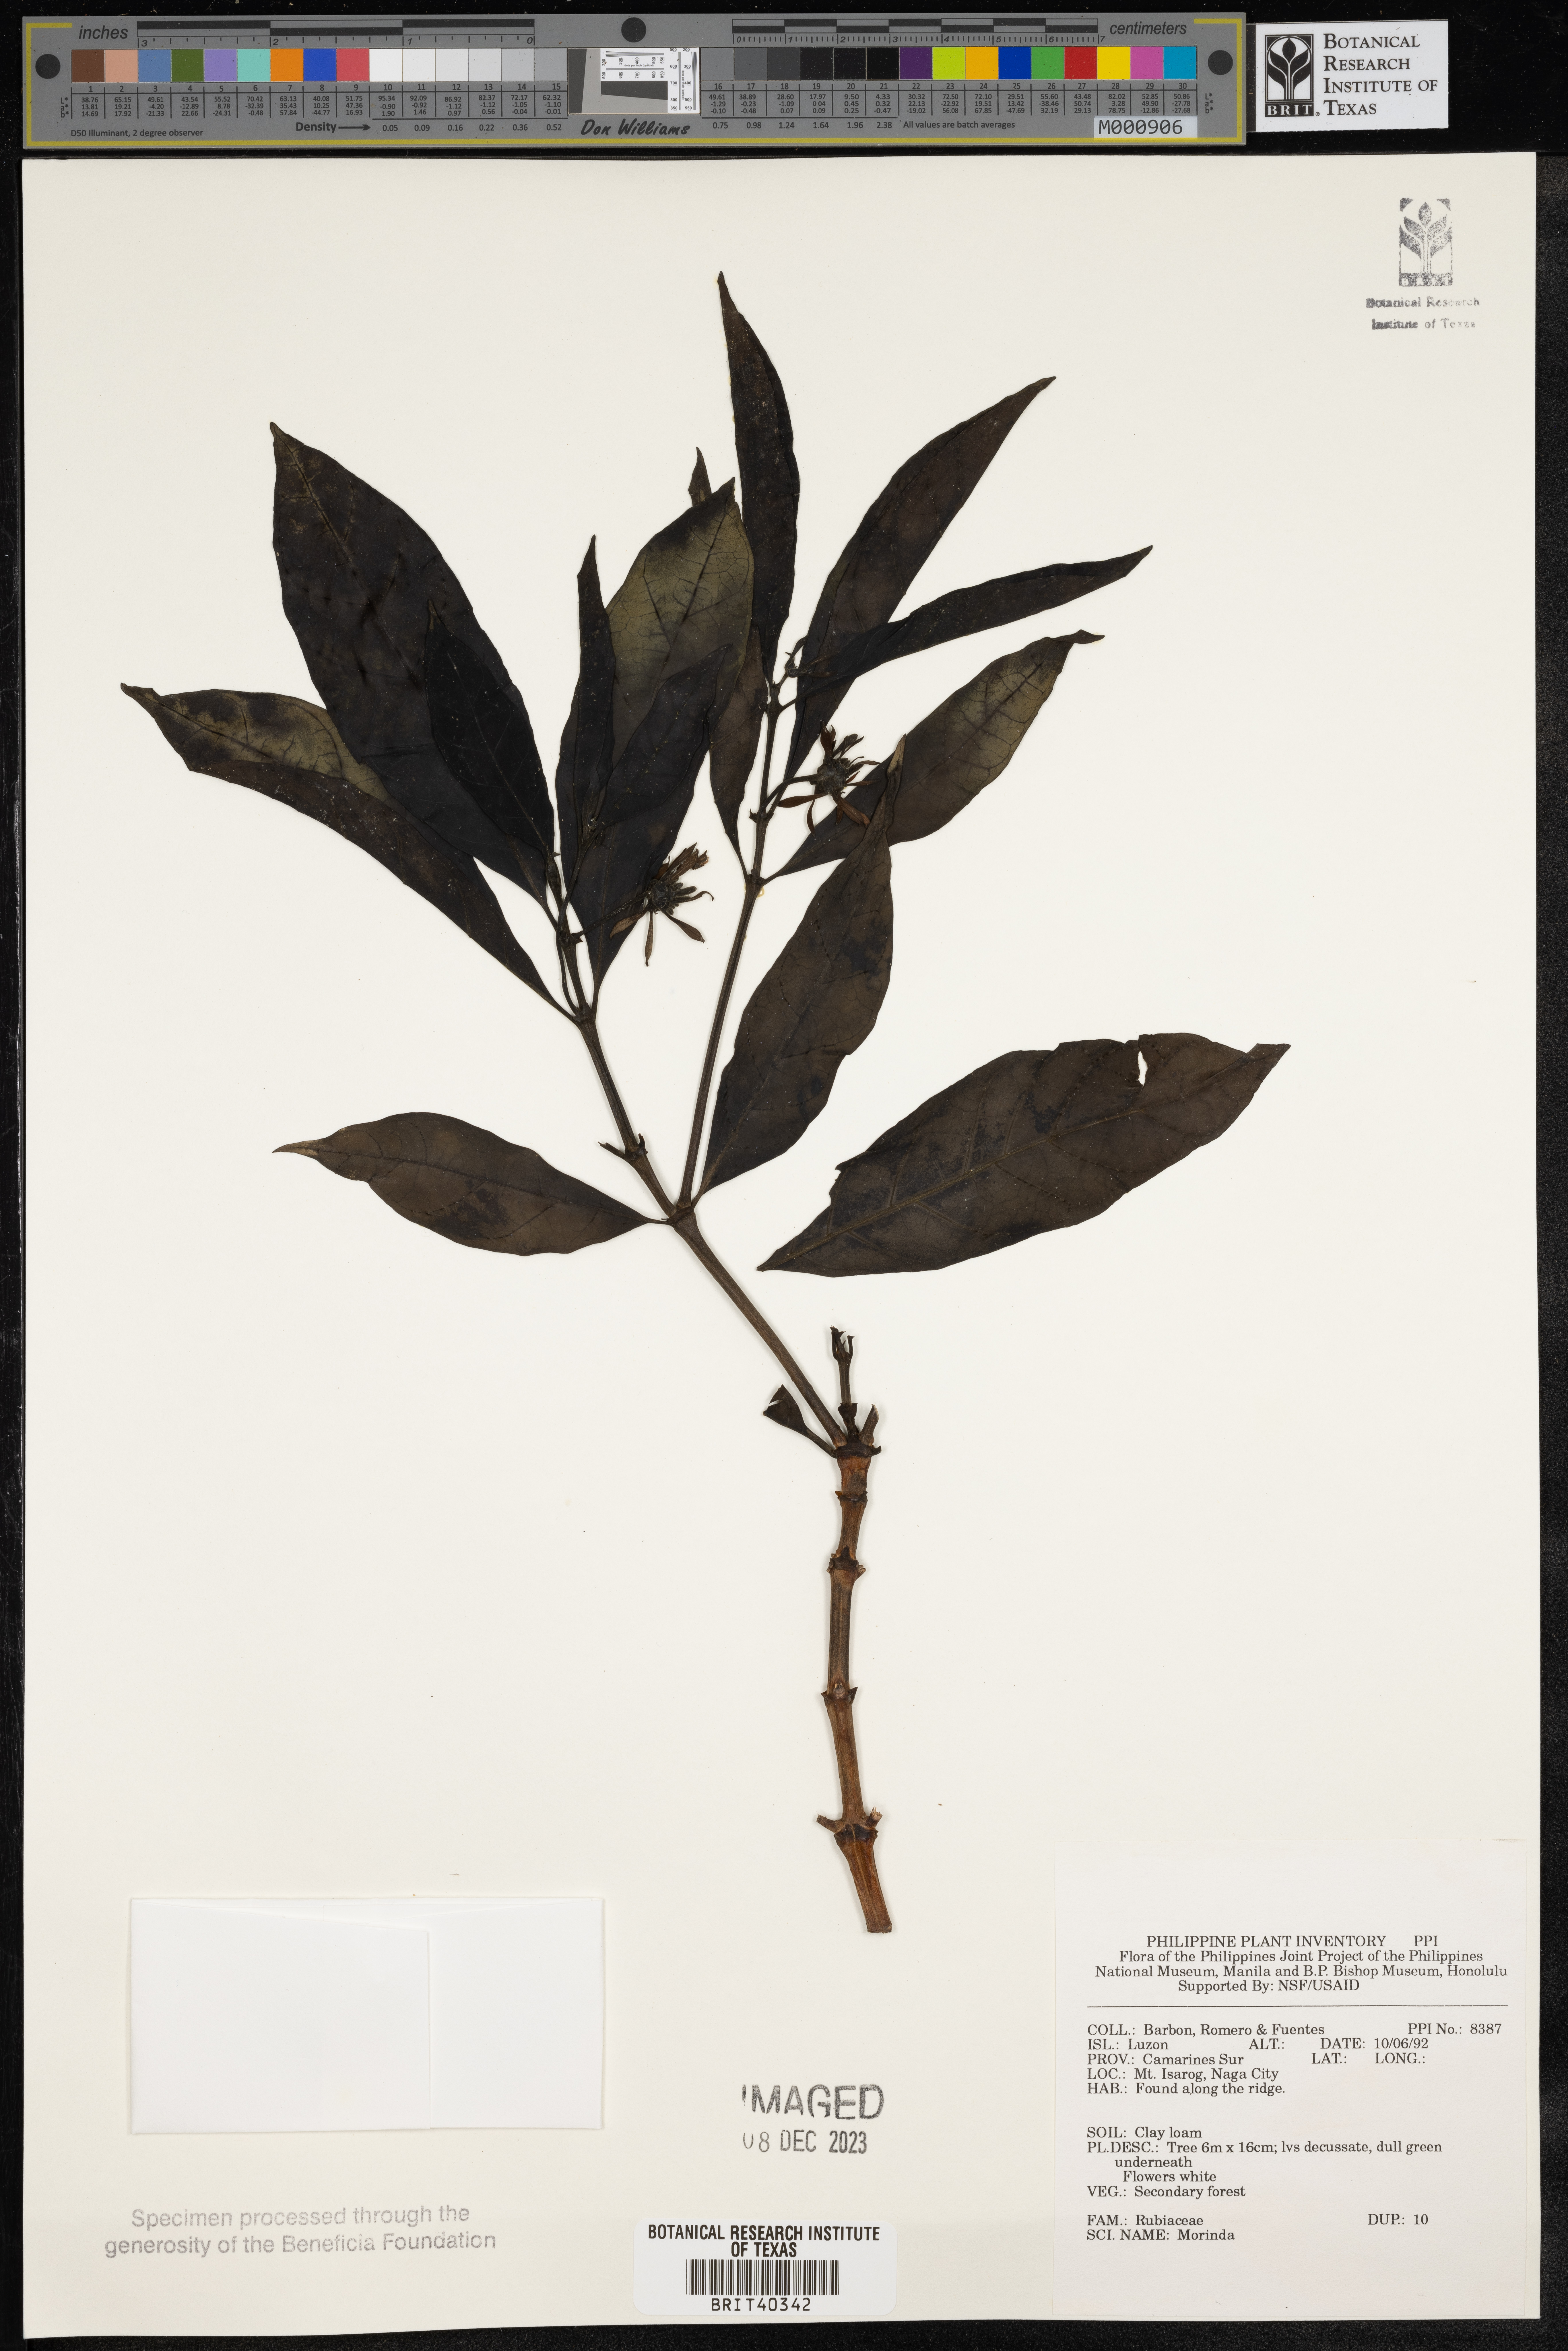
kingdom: Plantae
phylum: Tracheophyta
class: Magnoliopsida
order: Gentianales
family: Rubiaceae
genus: Morinda
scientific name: Morinda
